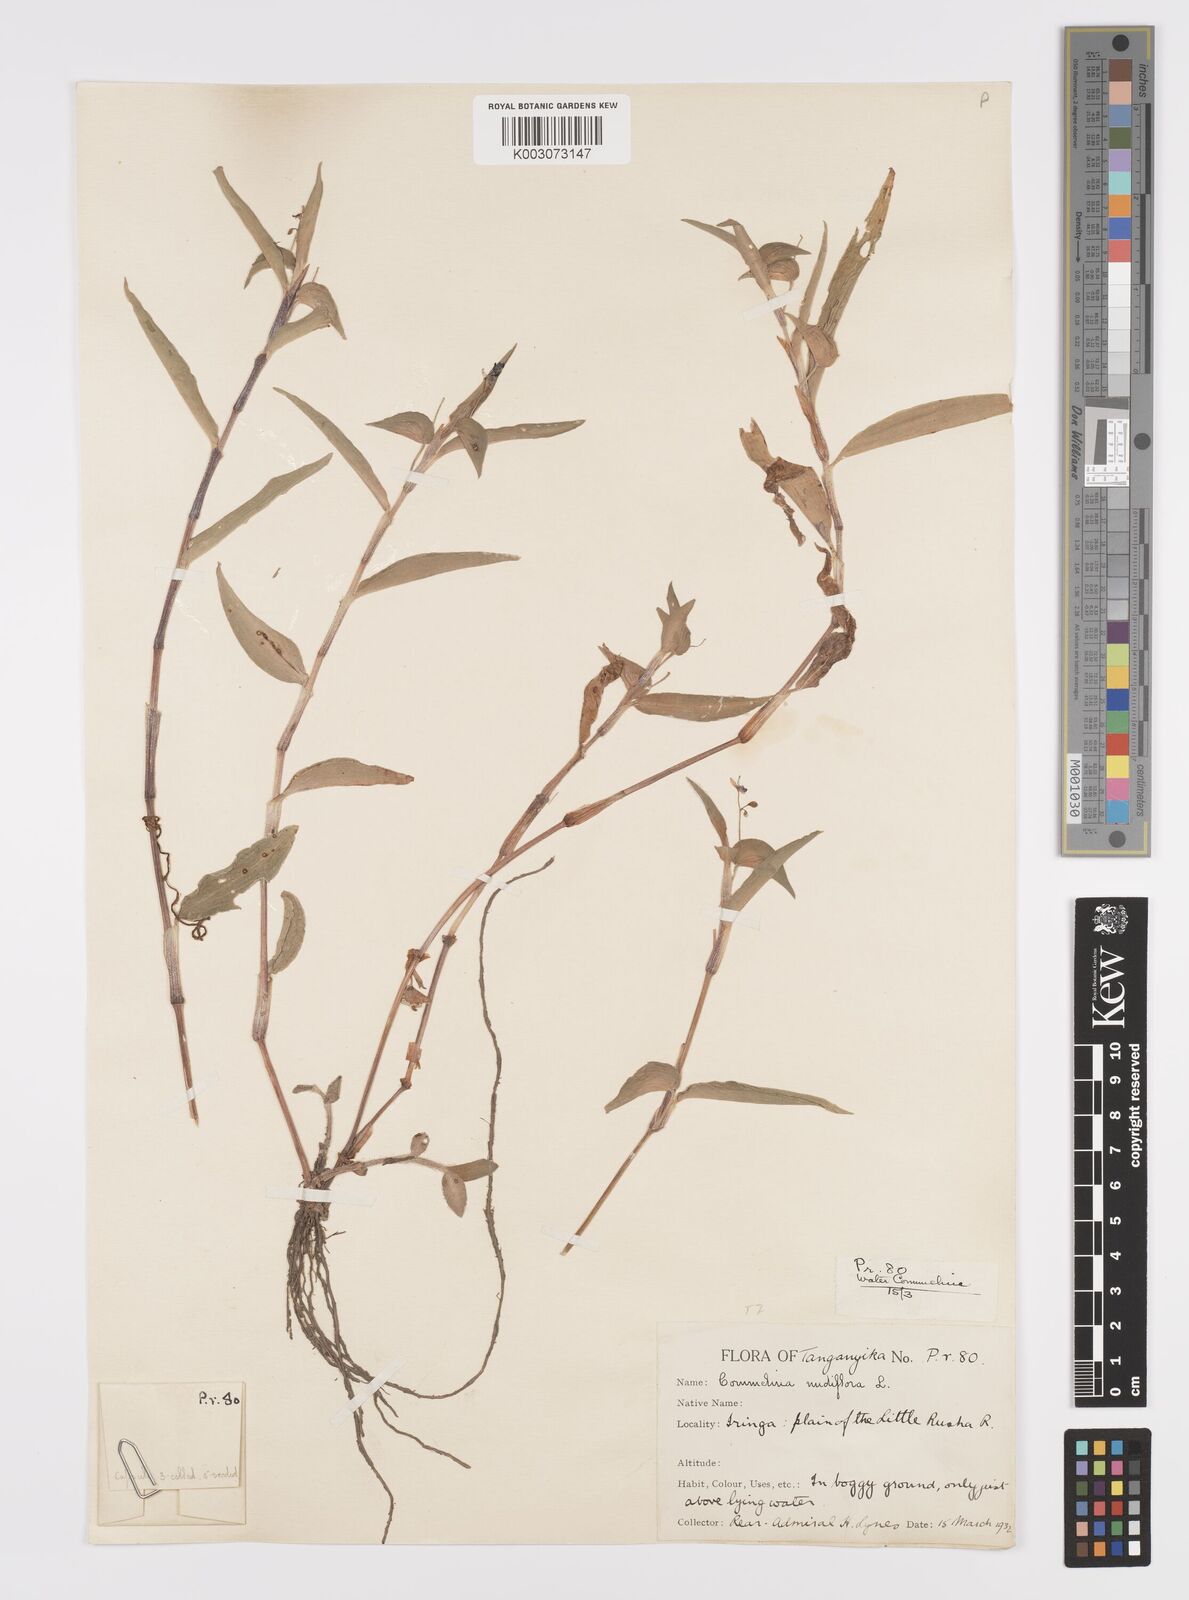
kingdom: Plantae
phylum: Tracheophyta
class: Liliopsida
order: Commelinales
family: Commelinaceae
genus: Commelina
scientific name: Commelina diffusa
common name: Climbing dayflower
